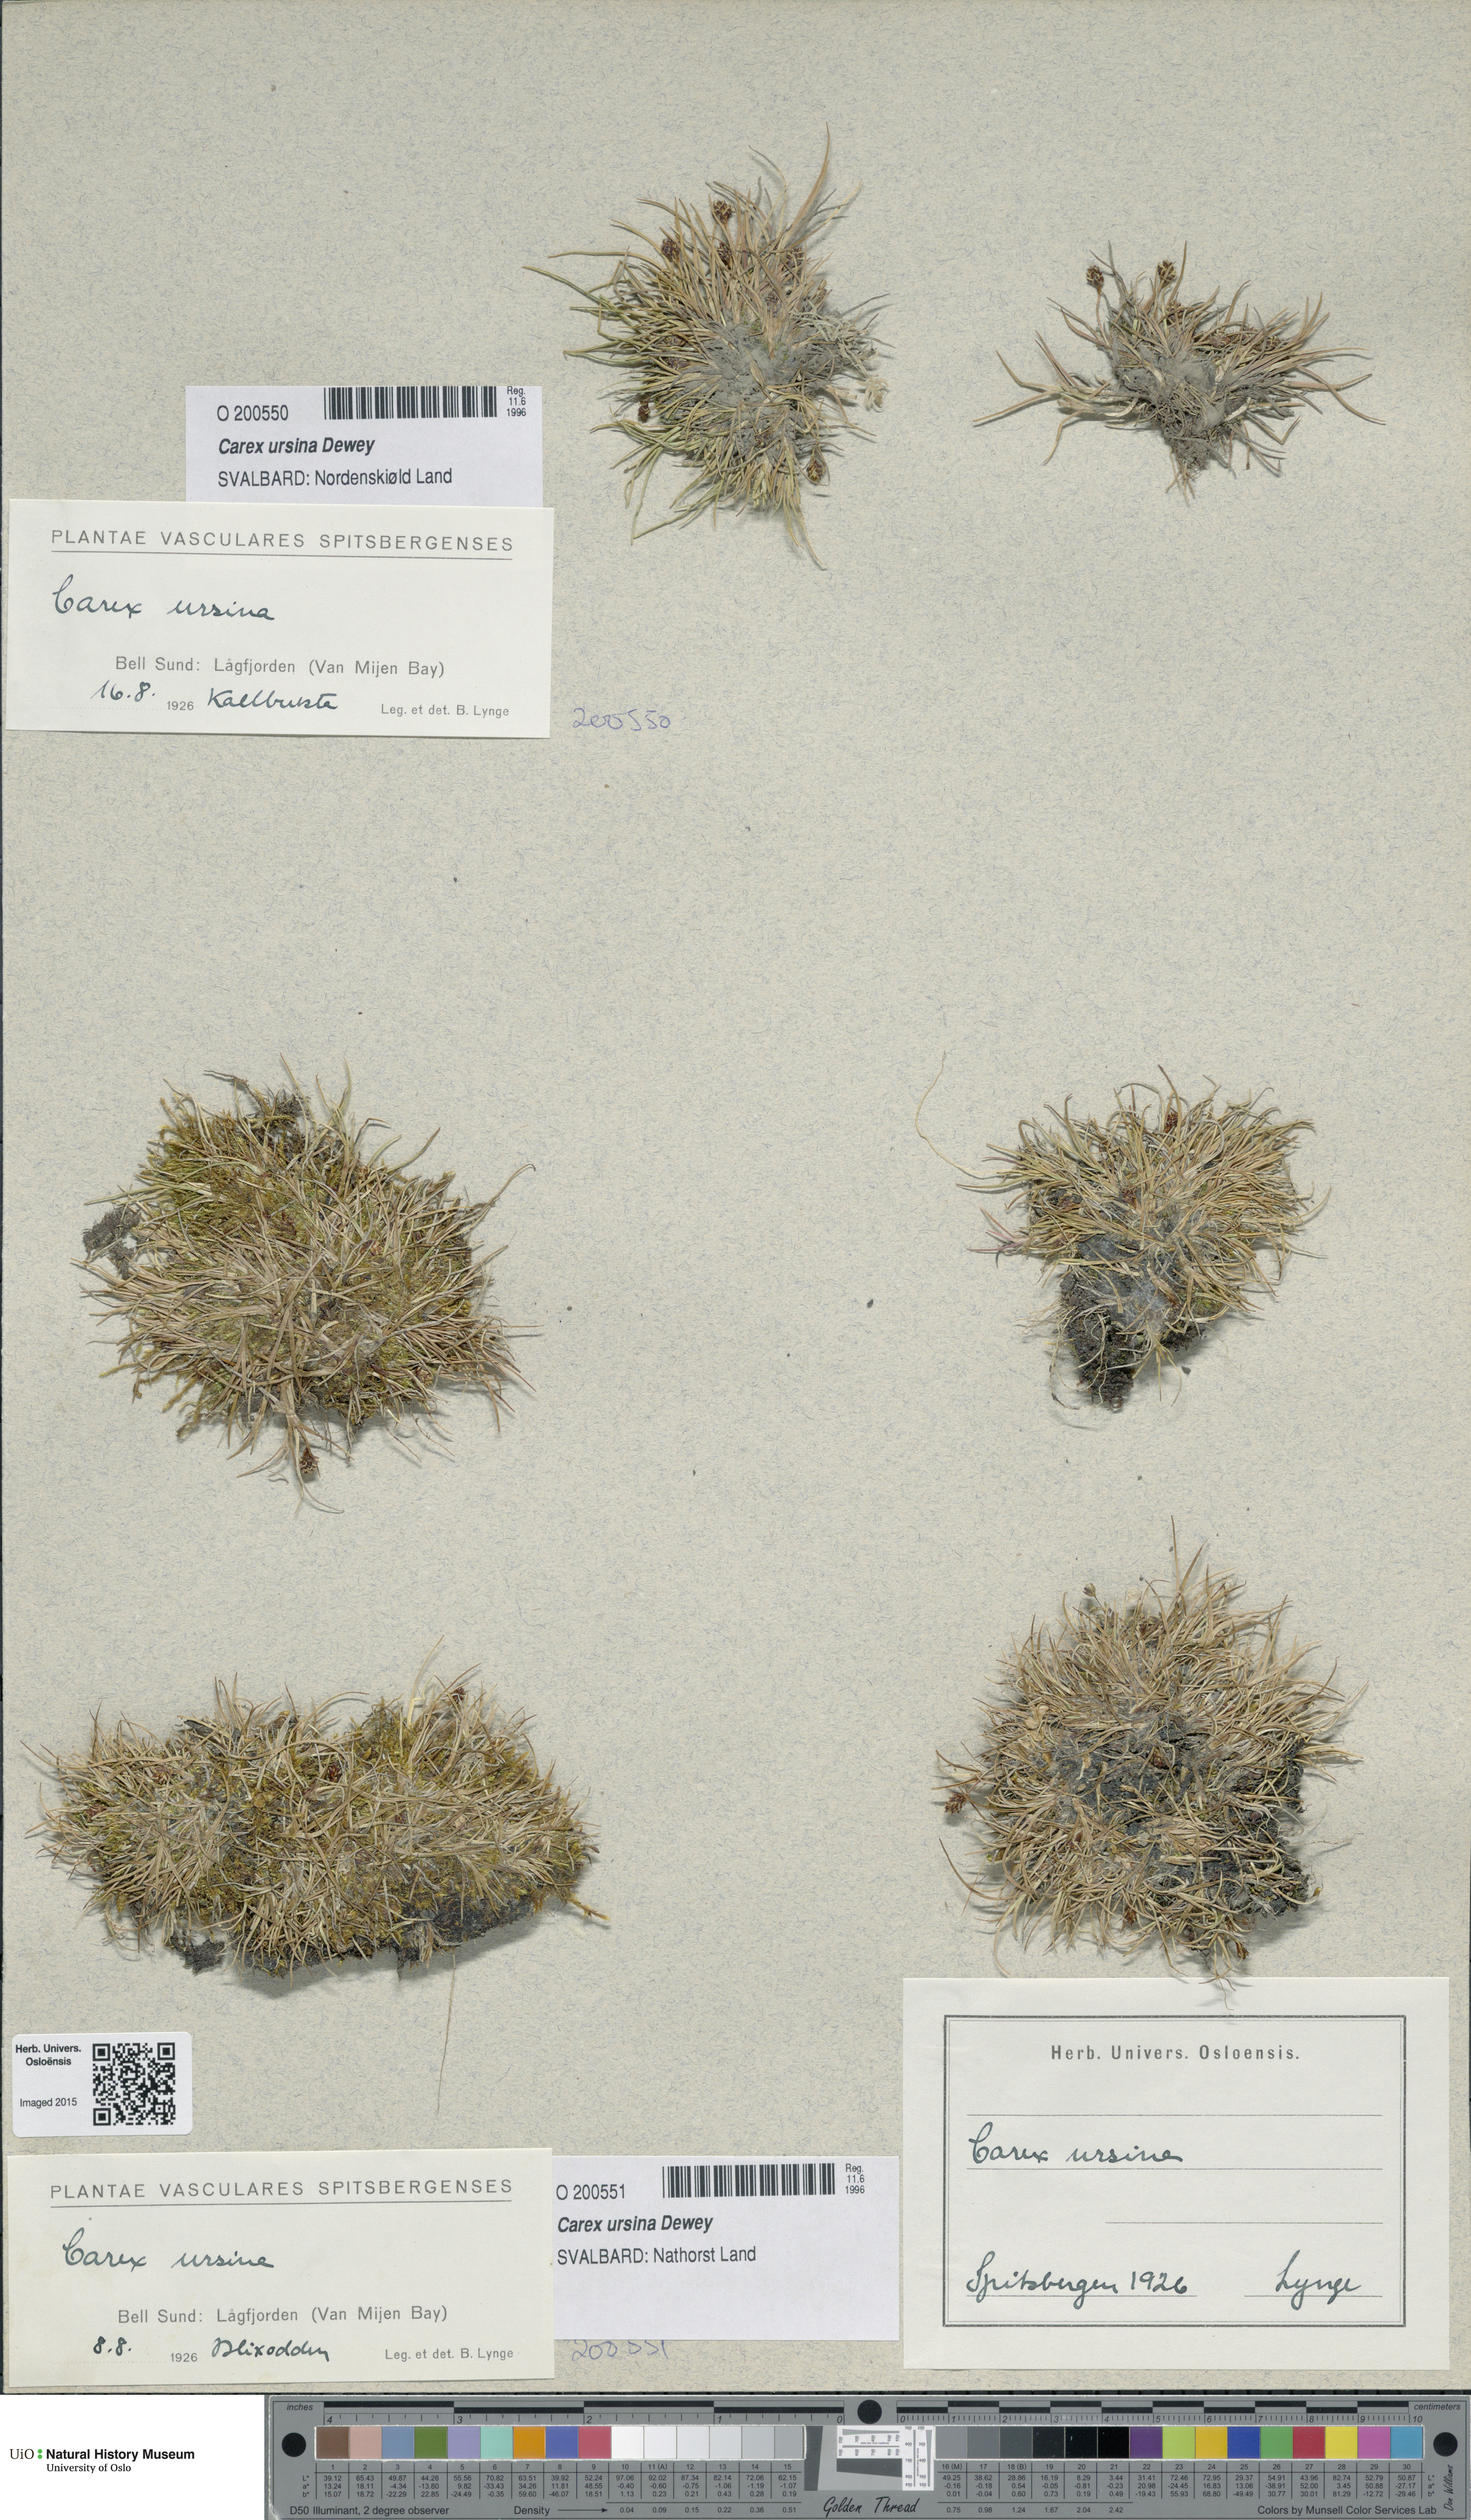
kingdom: Plantae
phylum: Tracheophyta
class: Liliopsida
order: Poales
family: Cyperaceae
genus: Carex
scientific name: Carex ursina
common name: Bear sedge
